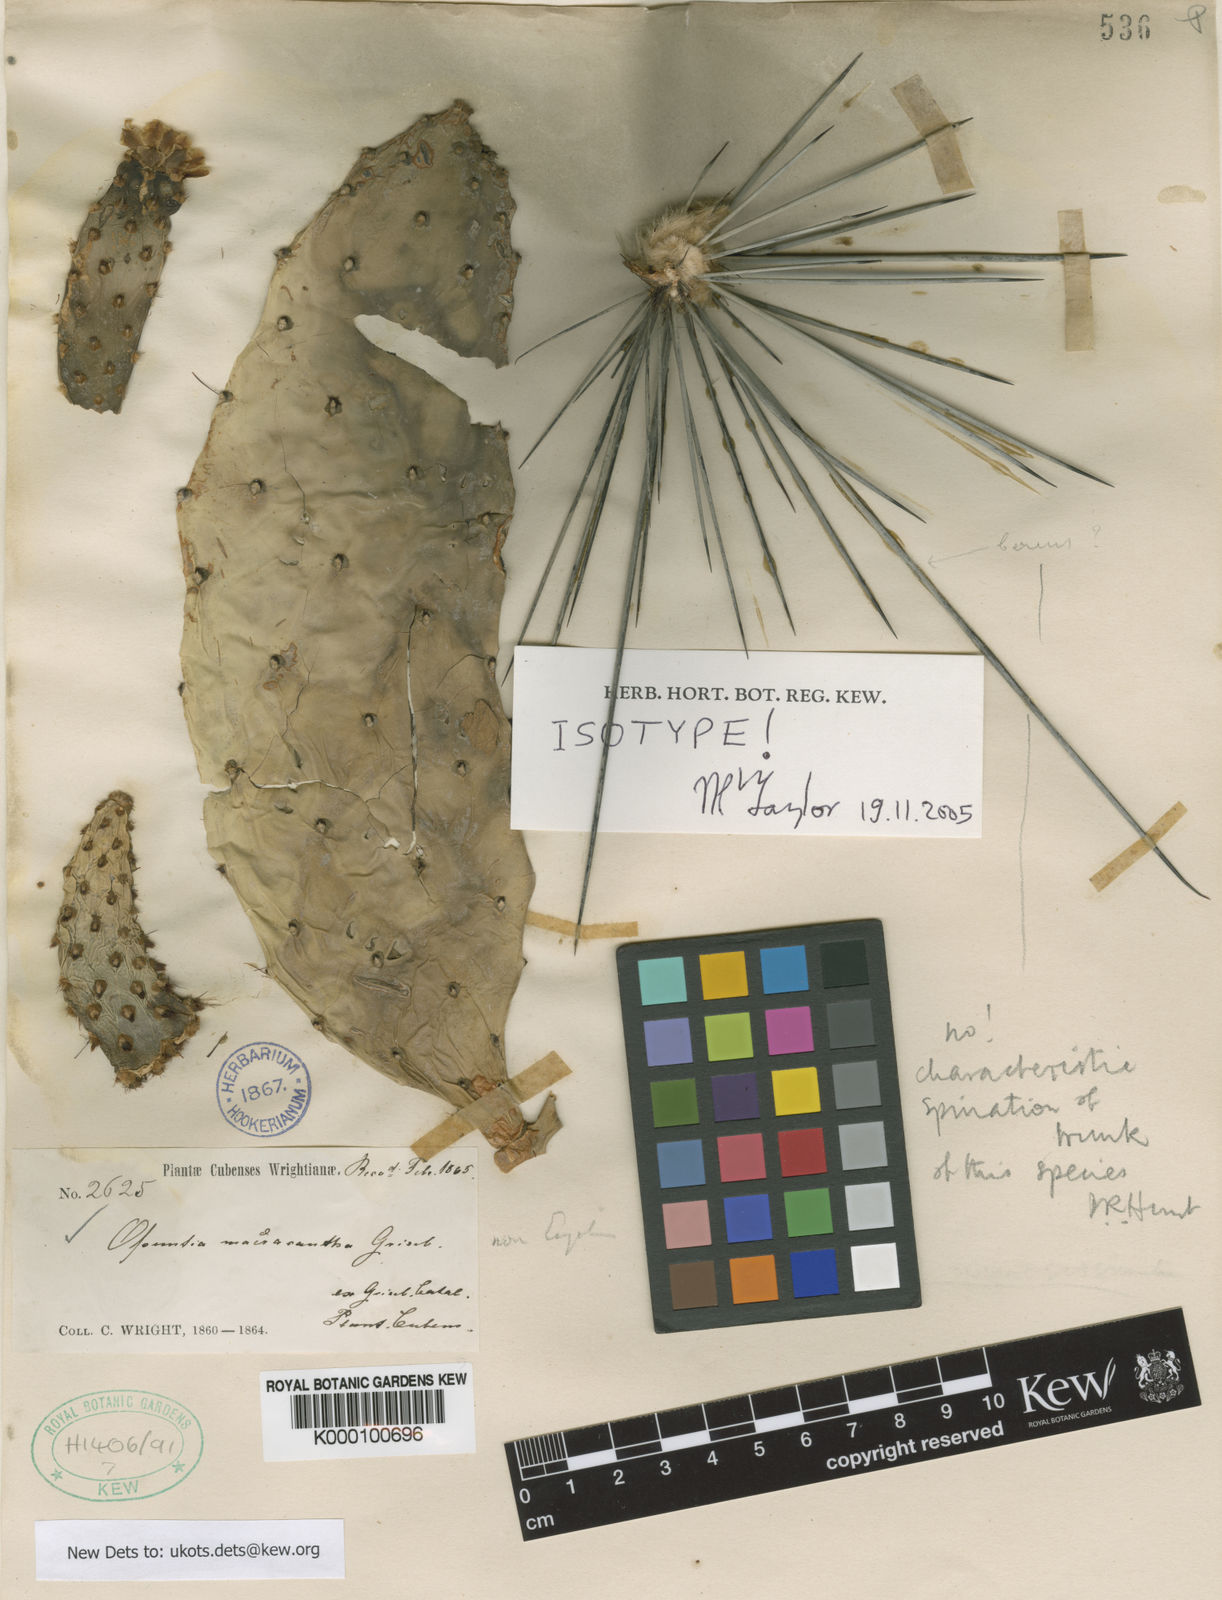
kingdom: Plantae
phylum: Tracheophyta
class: Magnoliopsida
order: Caryophyllales
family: Cactaceae
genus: Consolea
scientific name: Consolea macracantha
